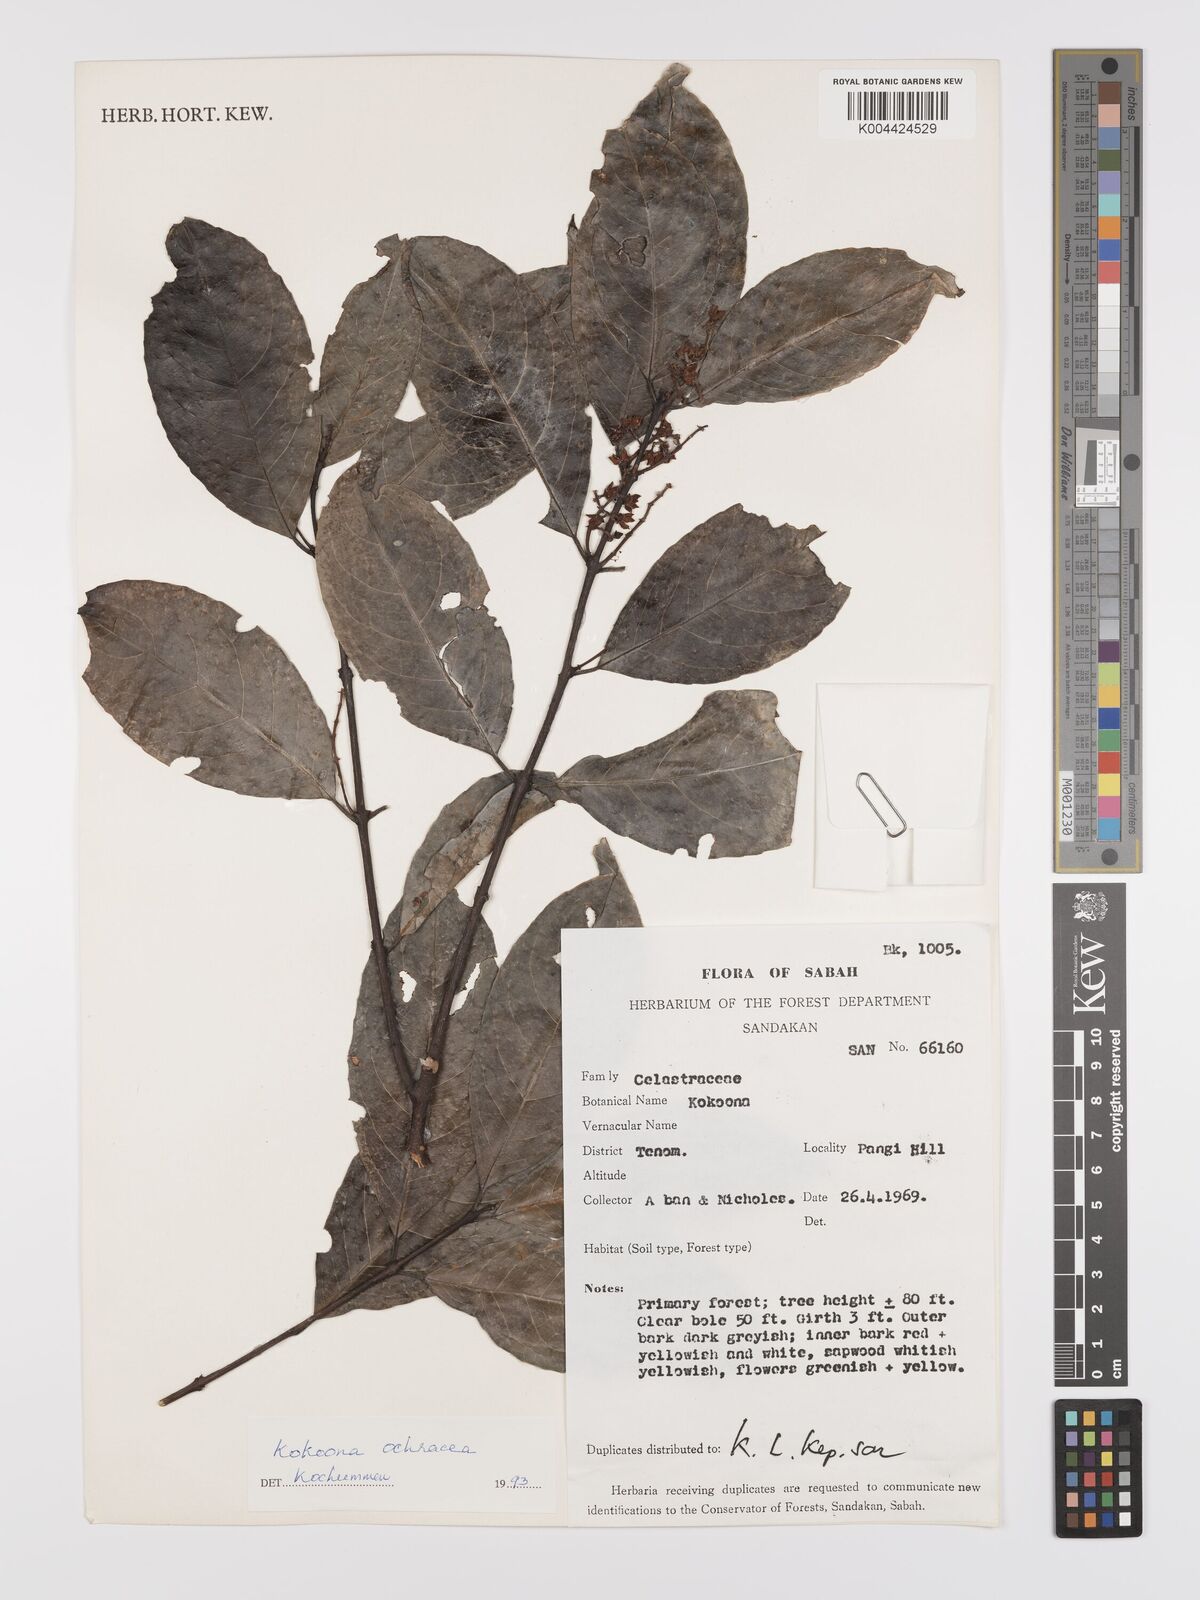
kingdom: Plantae
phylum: Tracheophyta
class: Magnoliopsida
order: Celastrales
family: Celastraceae
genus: Kokoona
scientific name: Kokoona ochracea
